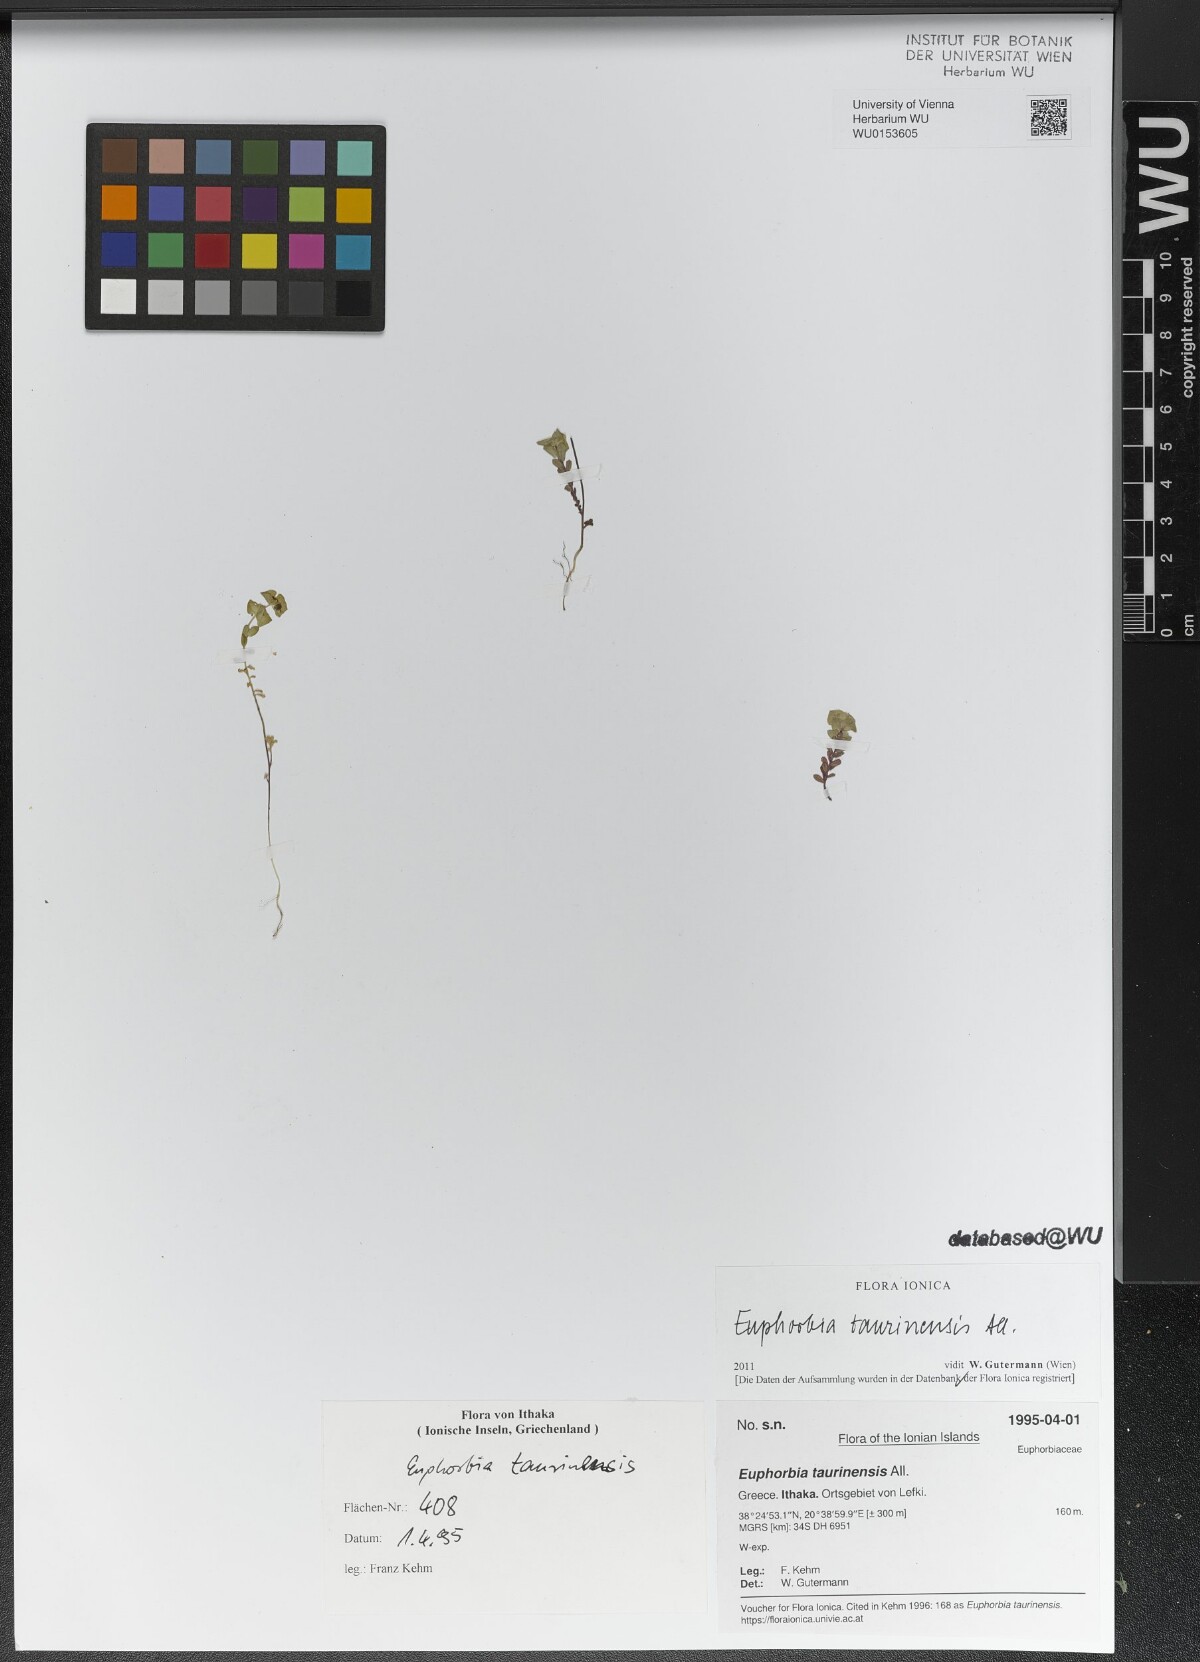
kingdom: Plantae
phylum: Tracheophyta
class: Magnoliopsida
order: Malpighiales
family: Euphorbiaceae
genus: Euphorbia
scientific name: Euphorbia taurinensis
